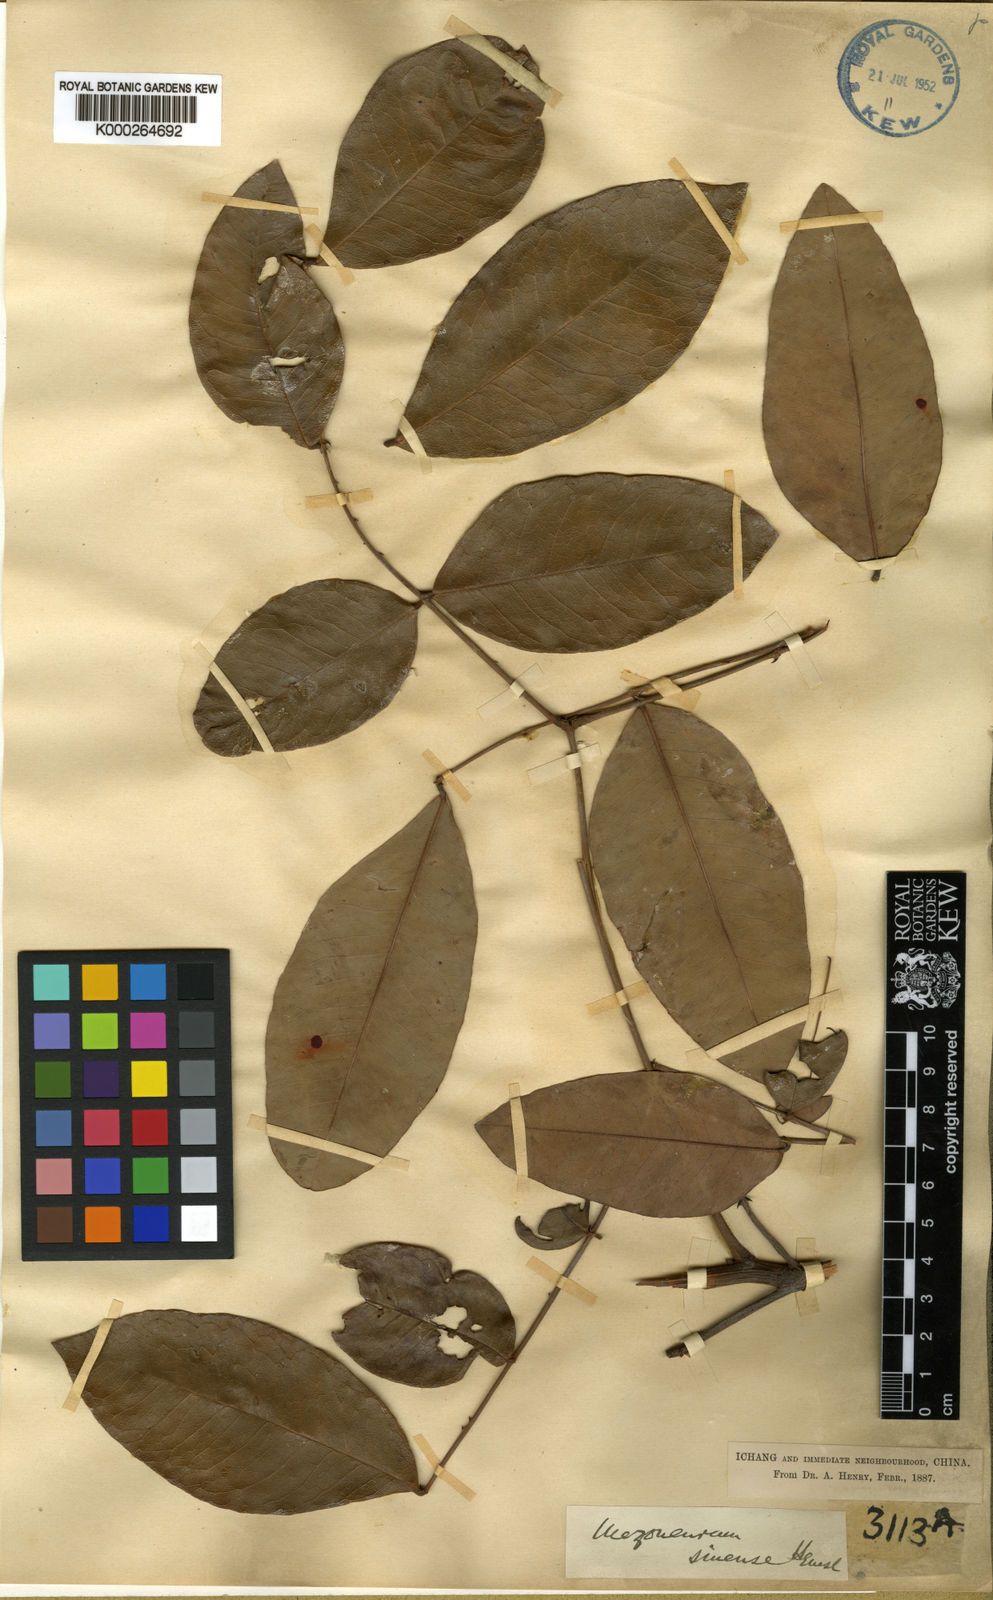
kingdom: Plantae
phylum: Tracheophyta
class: Magnoliopsida
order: Fabales
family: Fabaceae
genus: Mezoneuron
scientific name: Mezoneuron sinense
